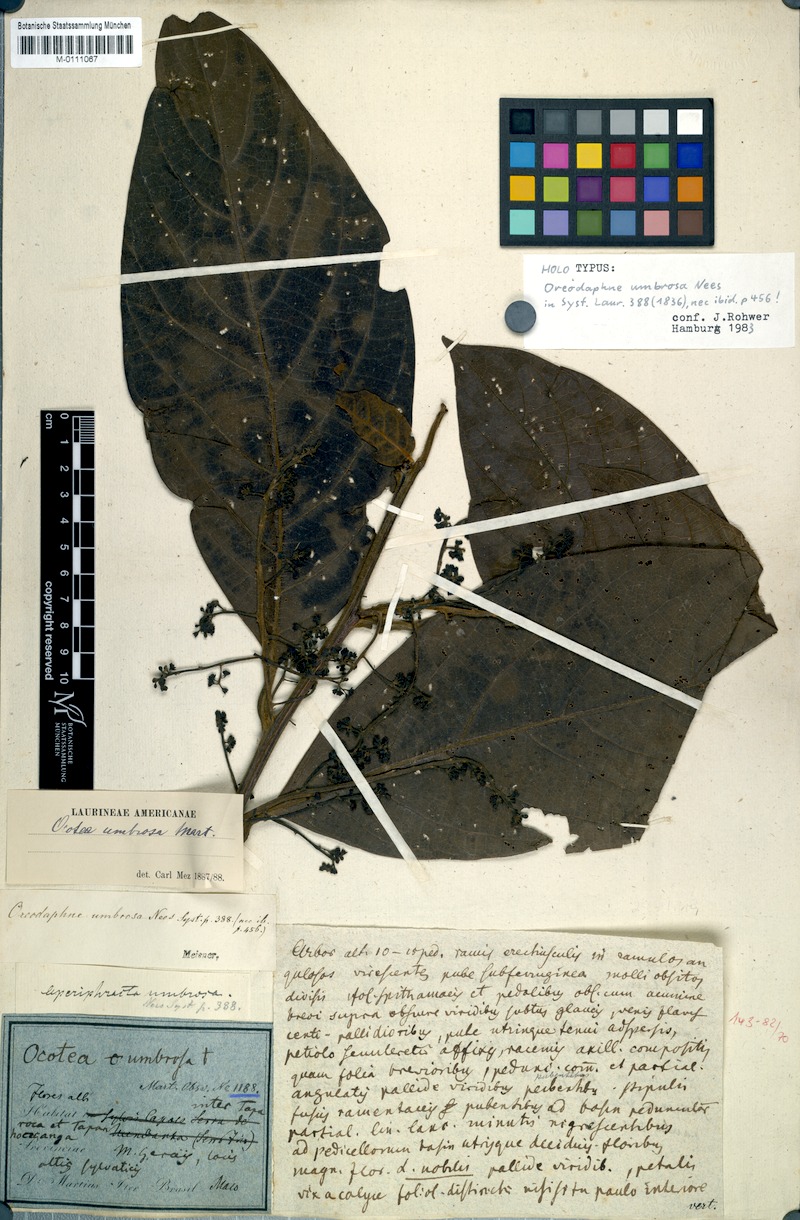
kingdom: Plantae
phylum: Tracheophyta
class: Magnoliopsida
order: Laurales
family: Lauraceae
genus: Ocotea
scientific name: Ocotea tabacifolia
